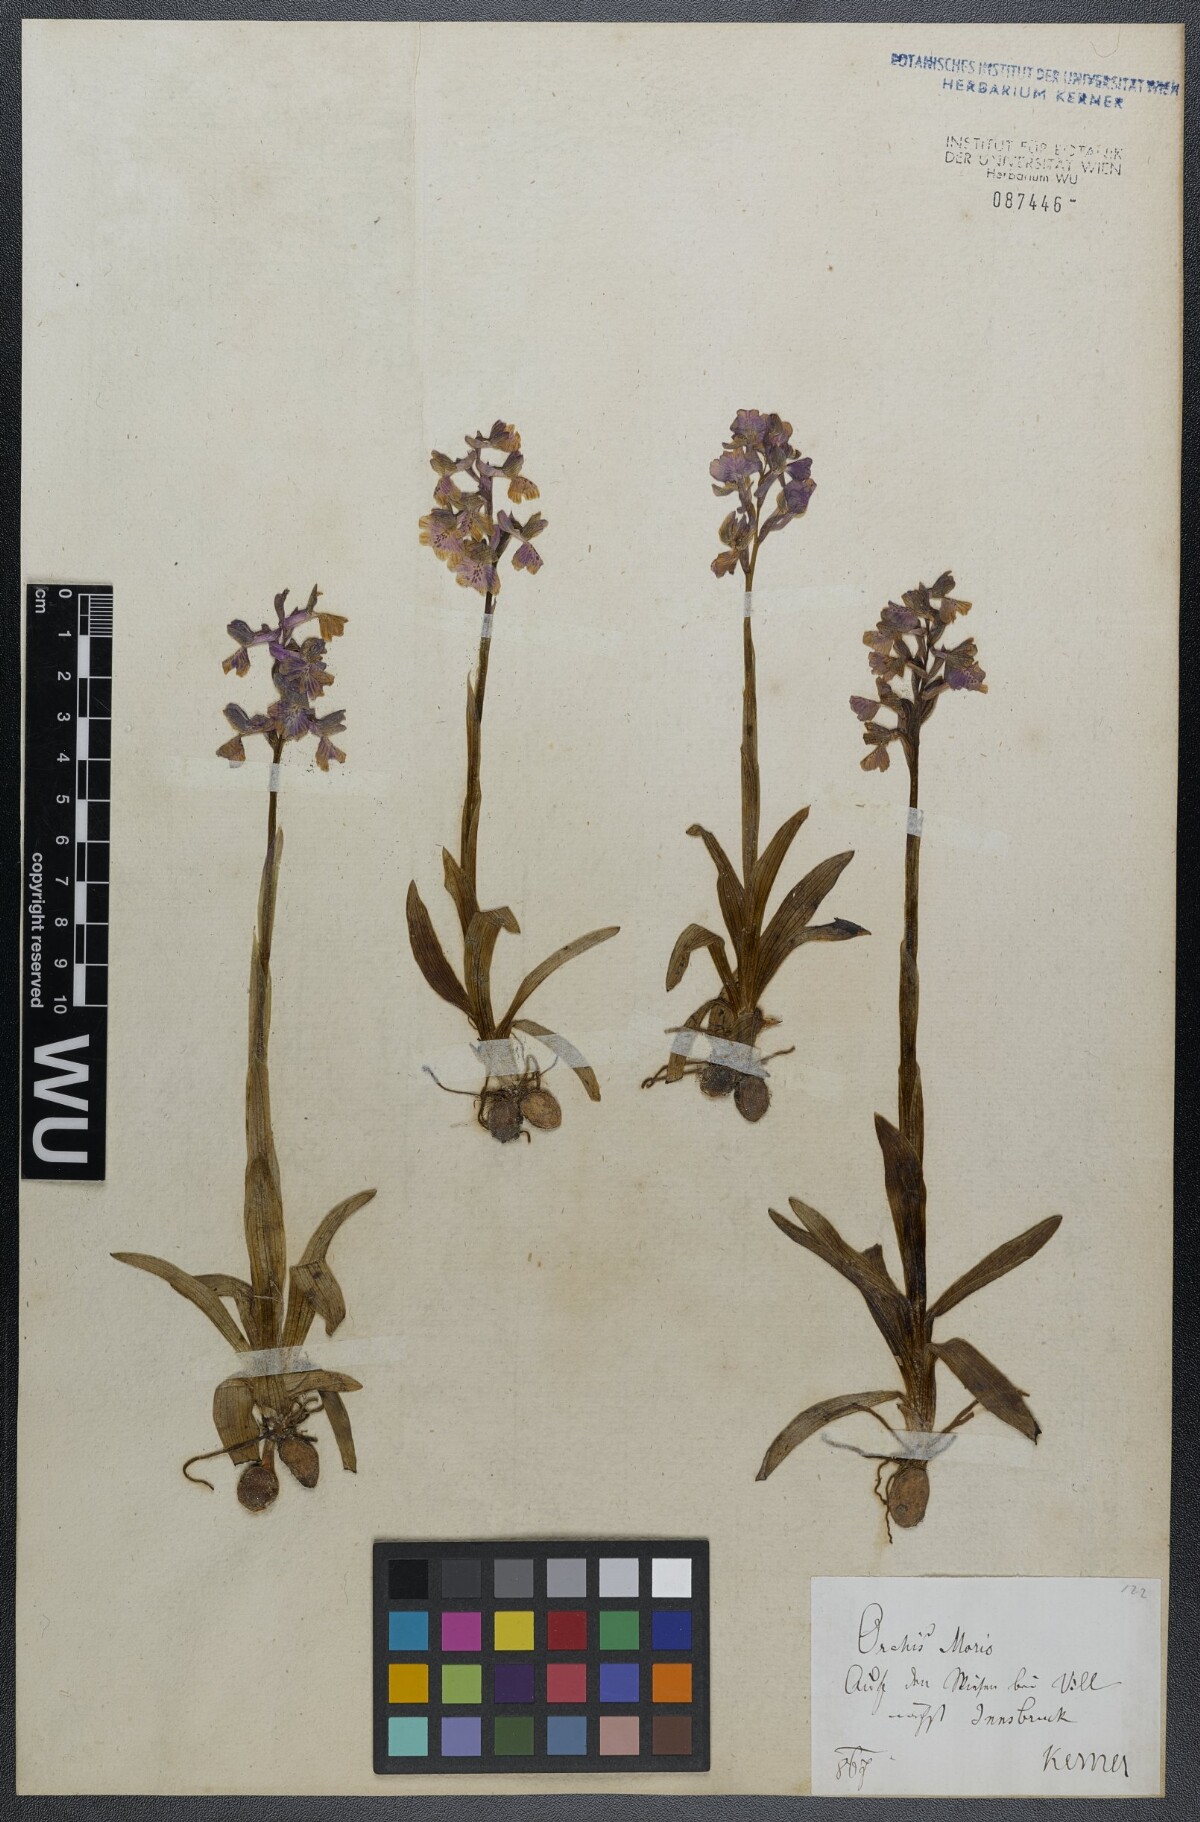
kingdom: Plantae
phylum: Tracheophyta
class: Liliopsida
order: Asparagales
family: Orchidaceae
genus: Anacamptis
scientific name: Anacamptis morio
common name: Green-winged orchid
